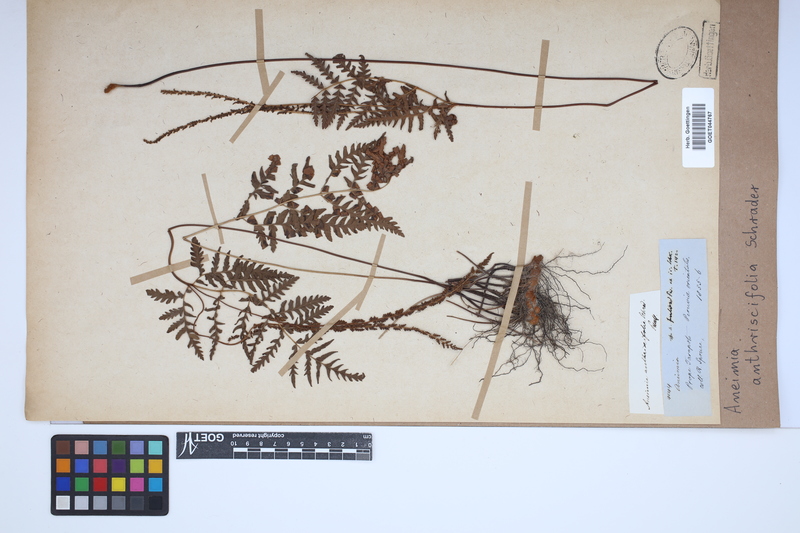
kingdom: Plantae
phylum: Tracheophyta
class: Polypodiopsida
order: Schizaeales
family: Anemiaceae
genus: Anemia
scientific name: Anemia tomentosa
